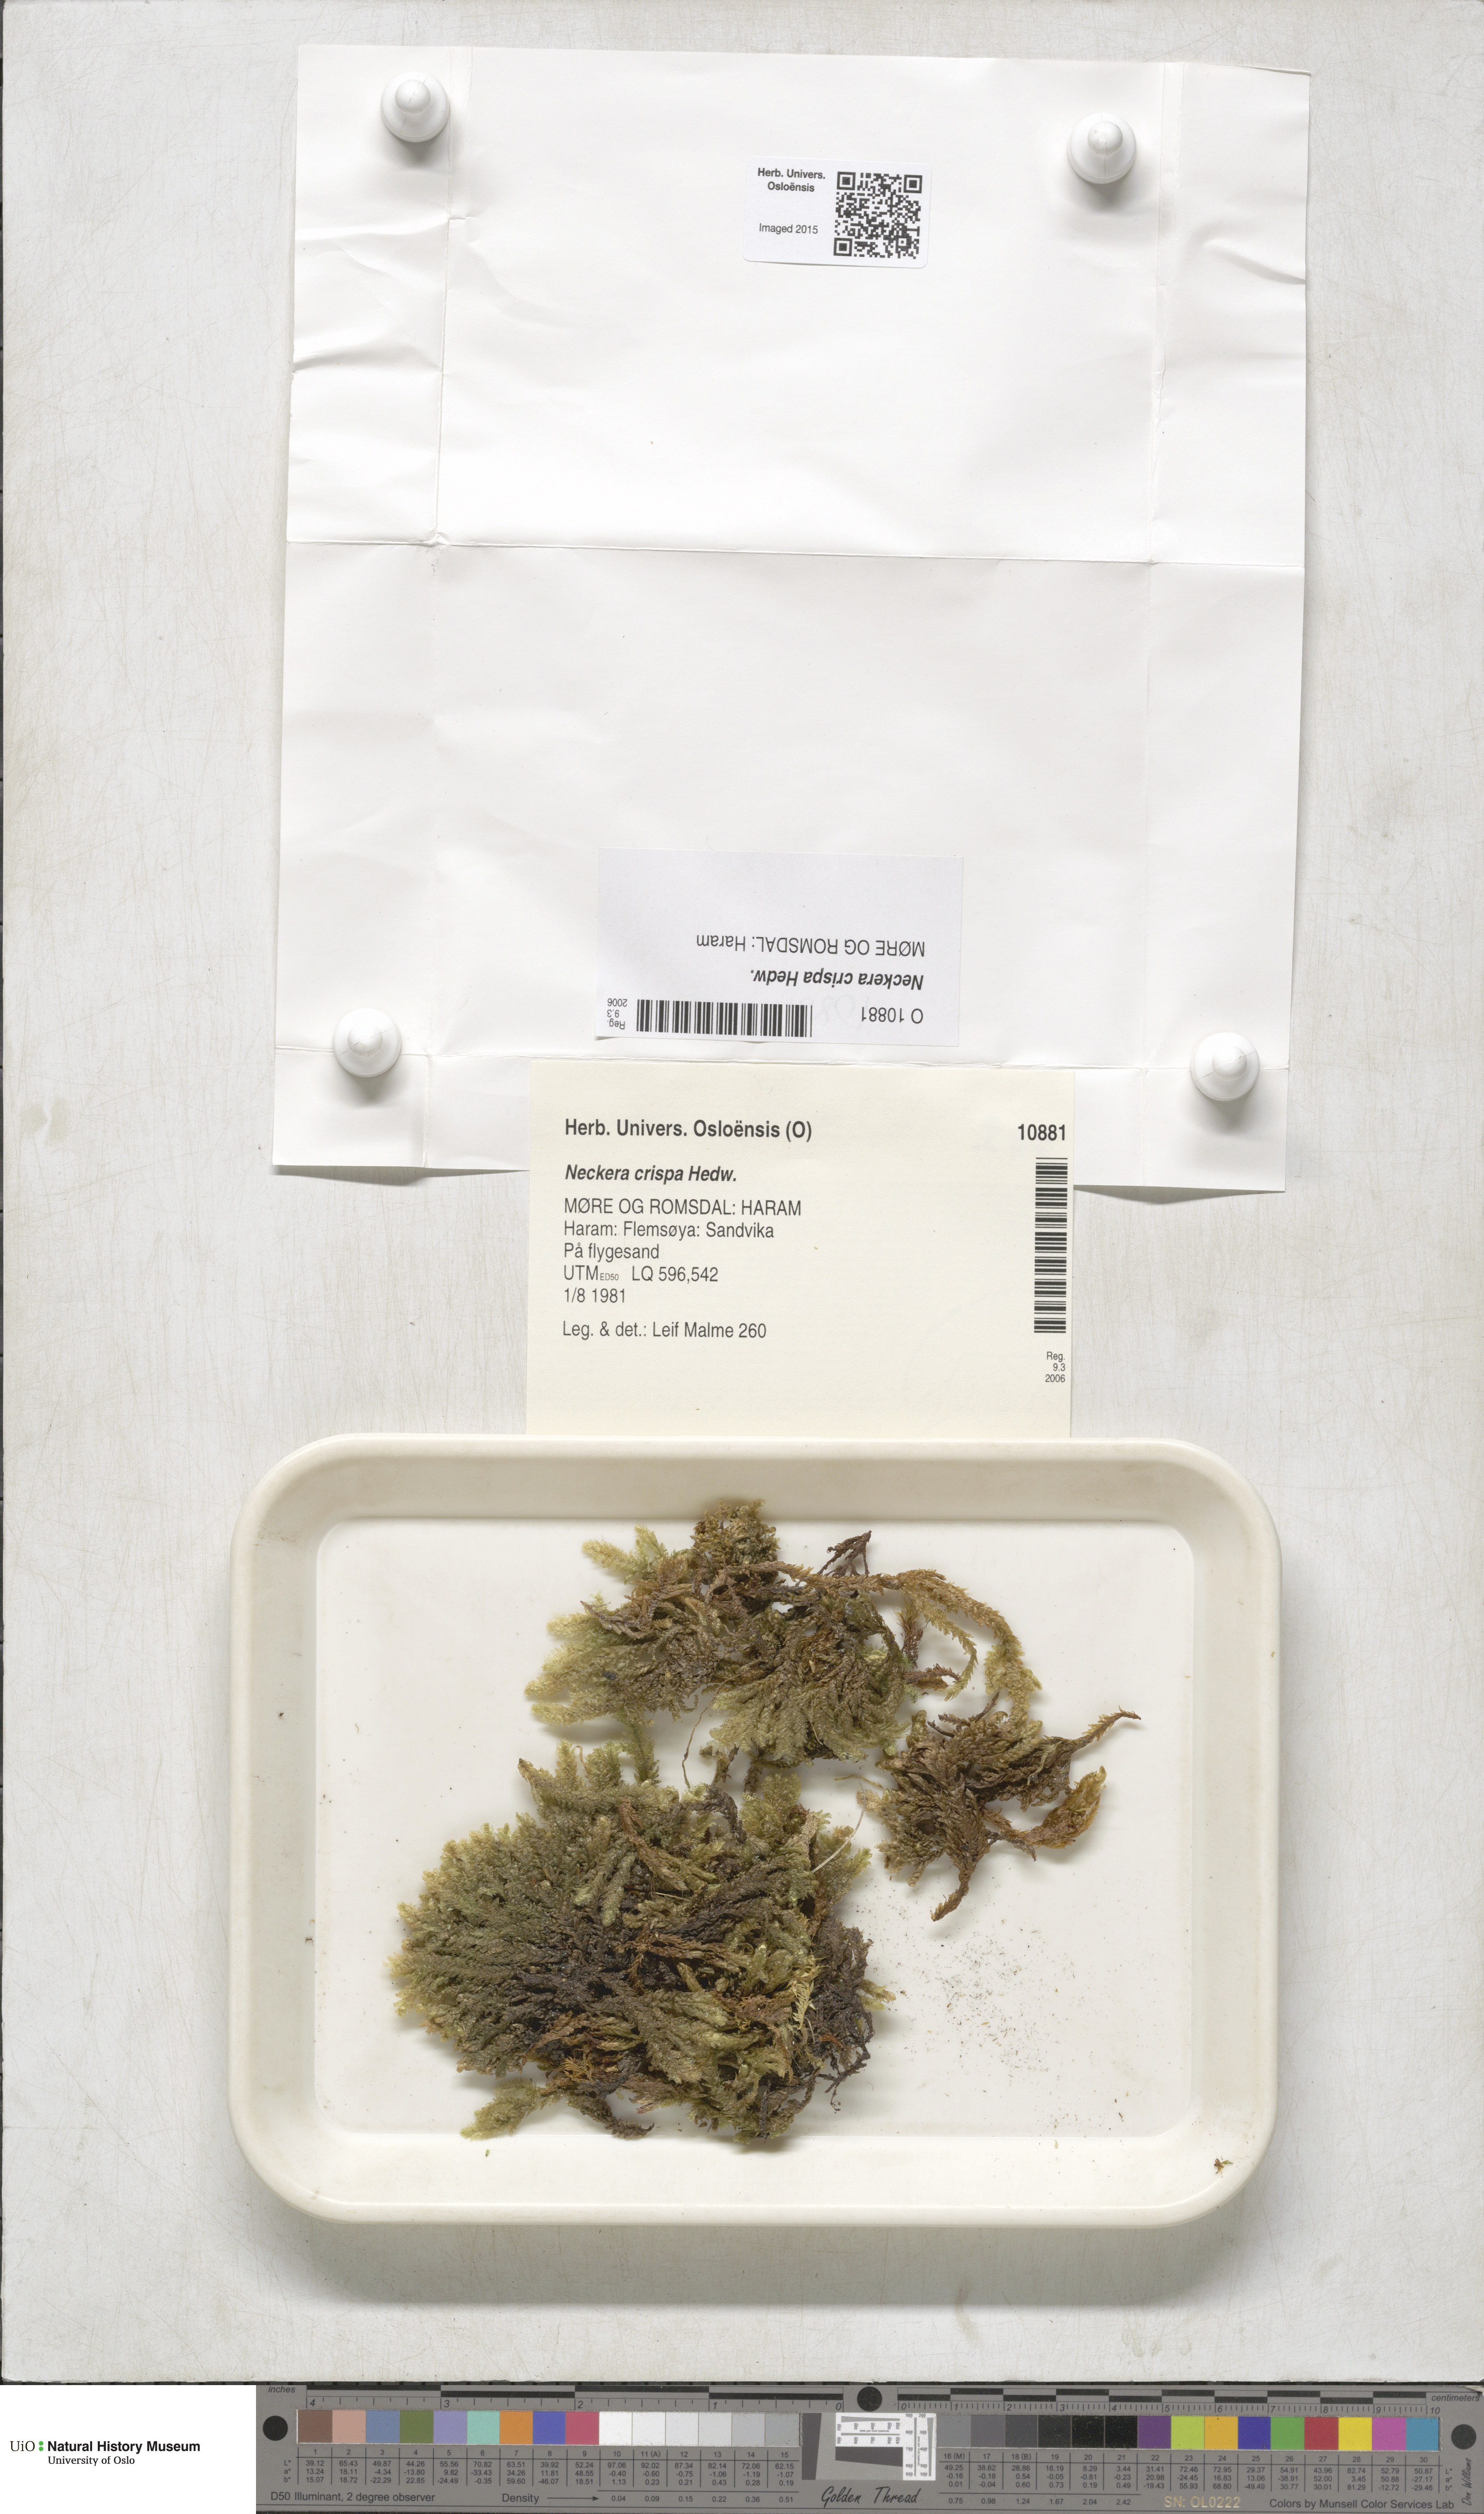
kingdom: Plantae
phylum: Bryophyta
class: Bryopsida
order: Hypnales
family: Neckeraceae
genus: Exsertotheca
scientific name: Exsertotheca crispa
